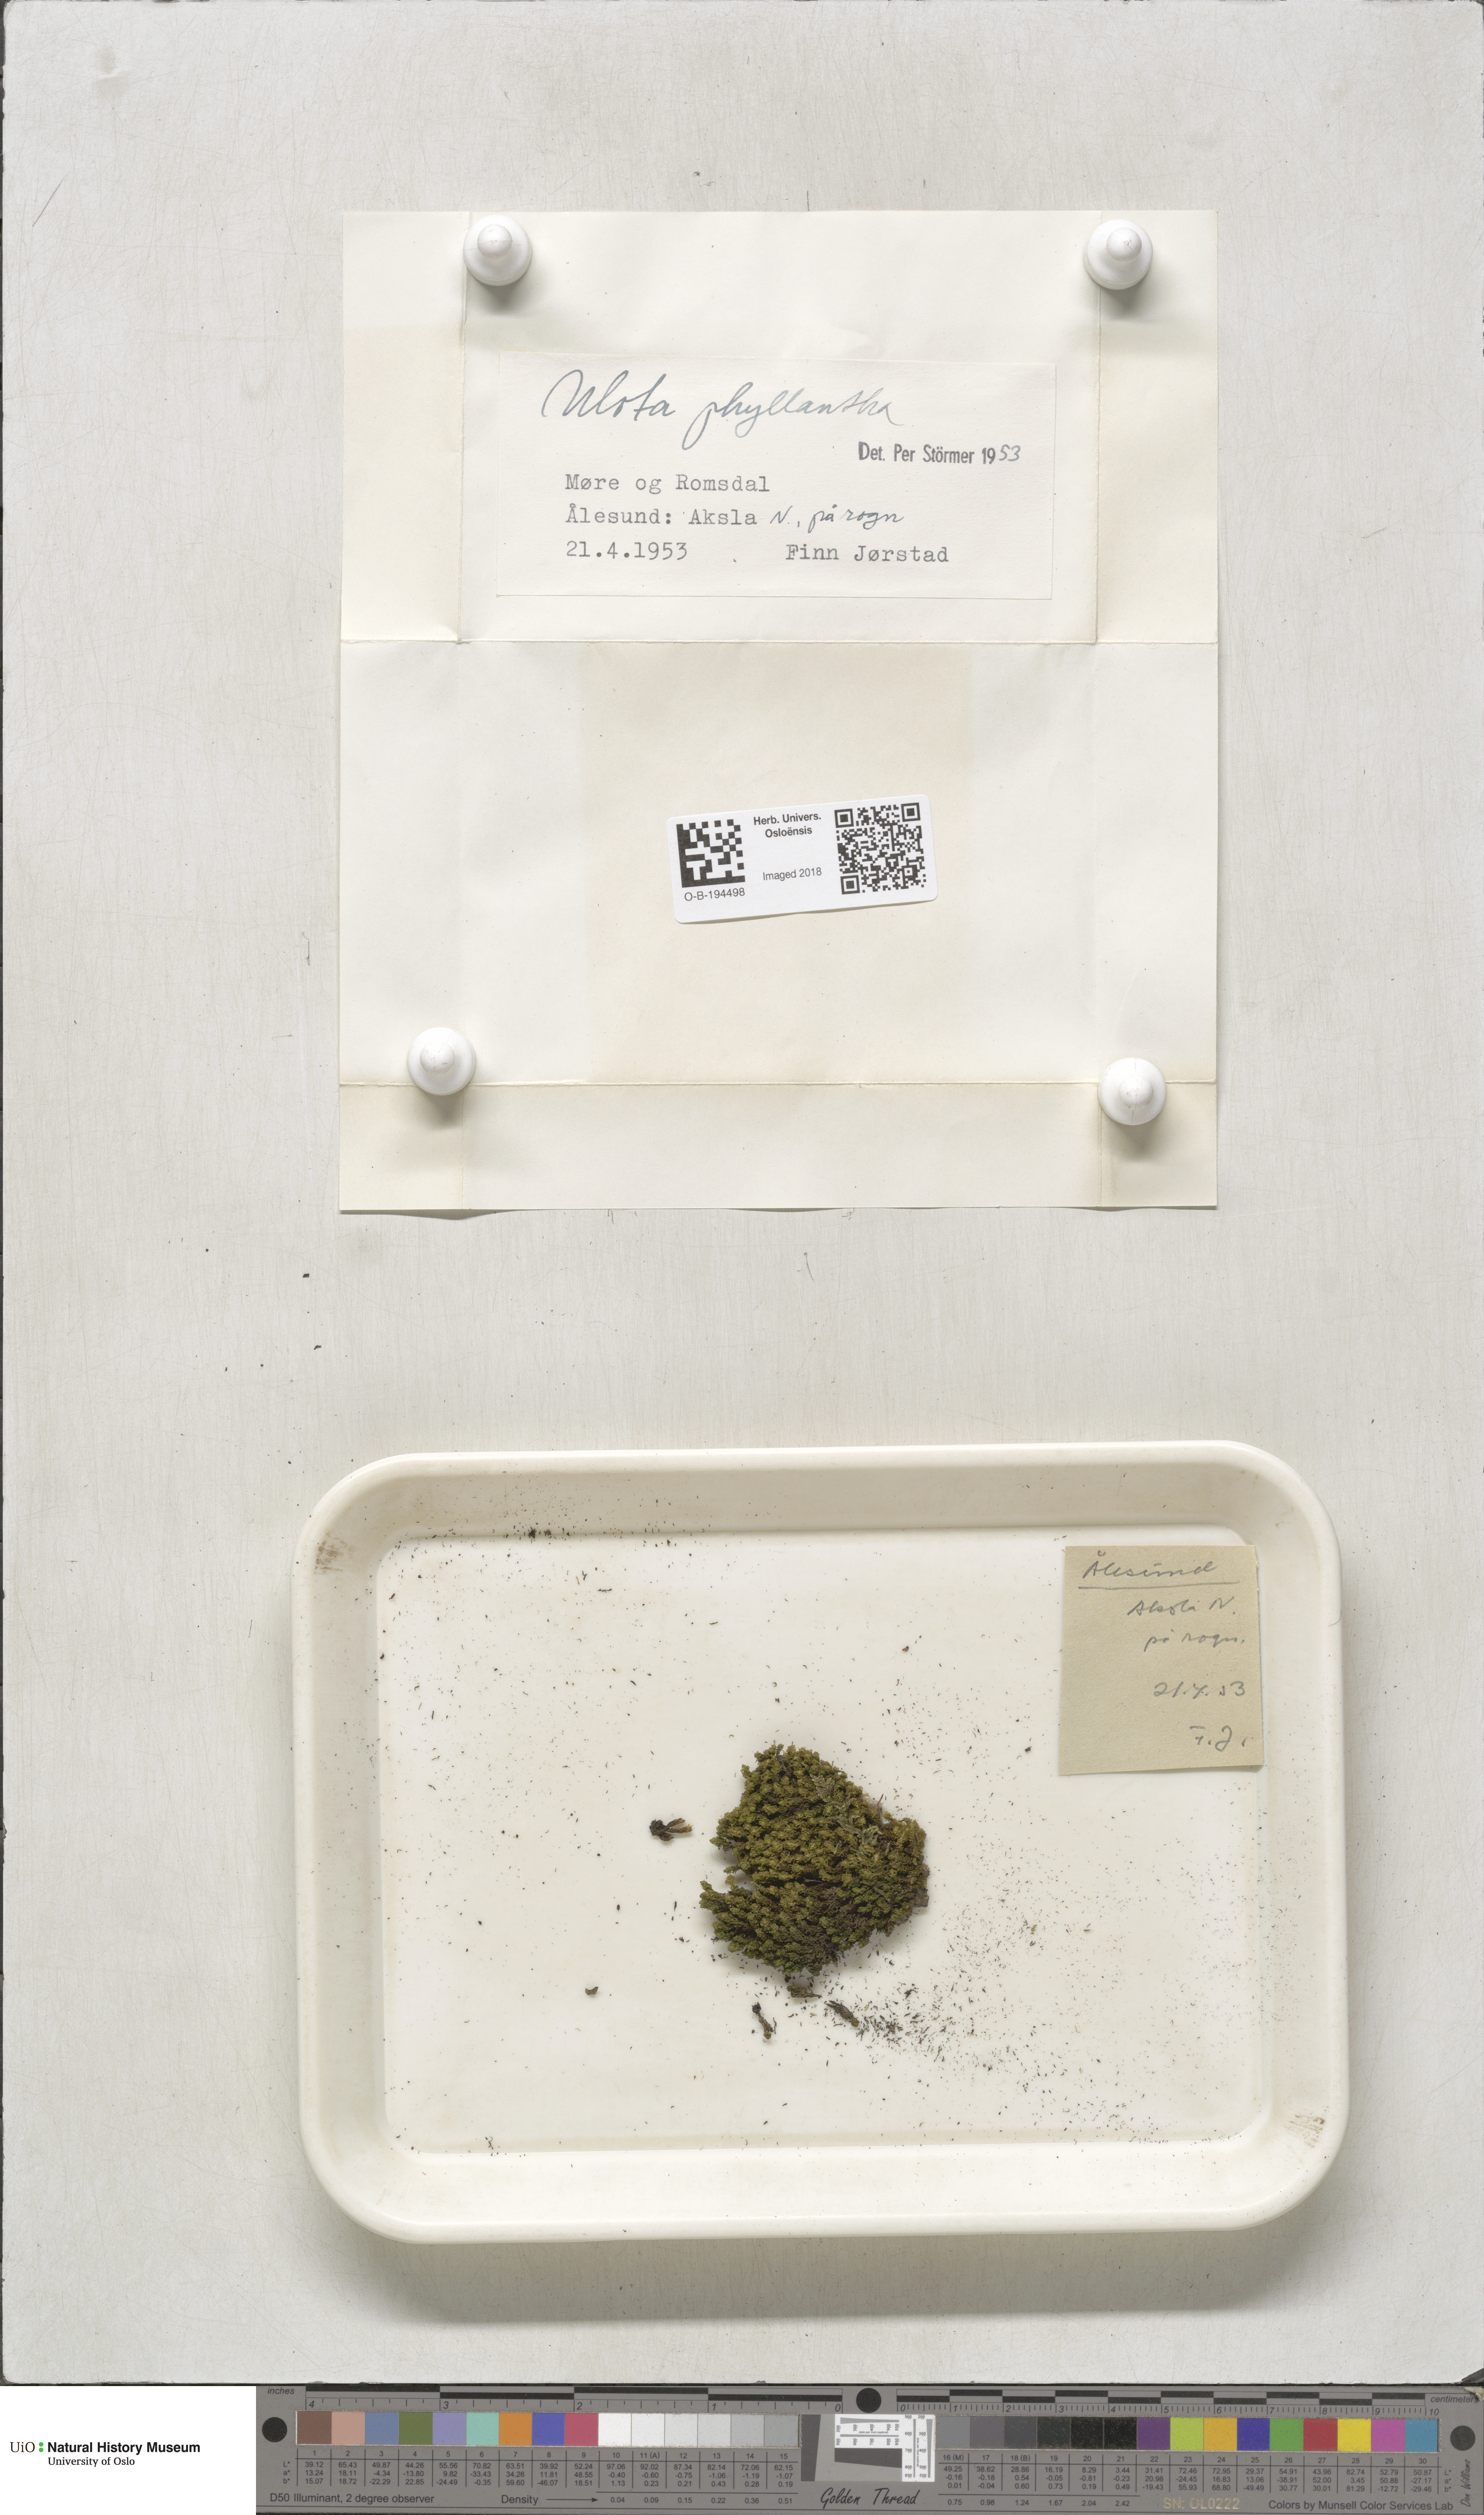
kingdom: Plantae
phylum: Bryophyta
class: Bryopsida
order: Orthotrichales
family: Orthotrichaceae
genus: Plenogemma
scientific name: Plenogemma phyllantha
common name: Frizzled pincushion
